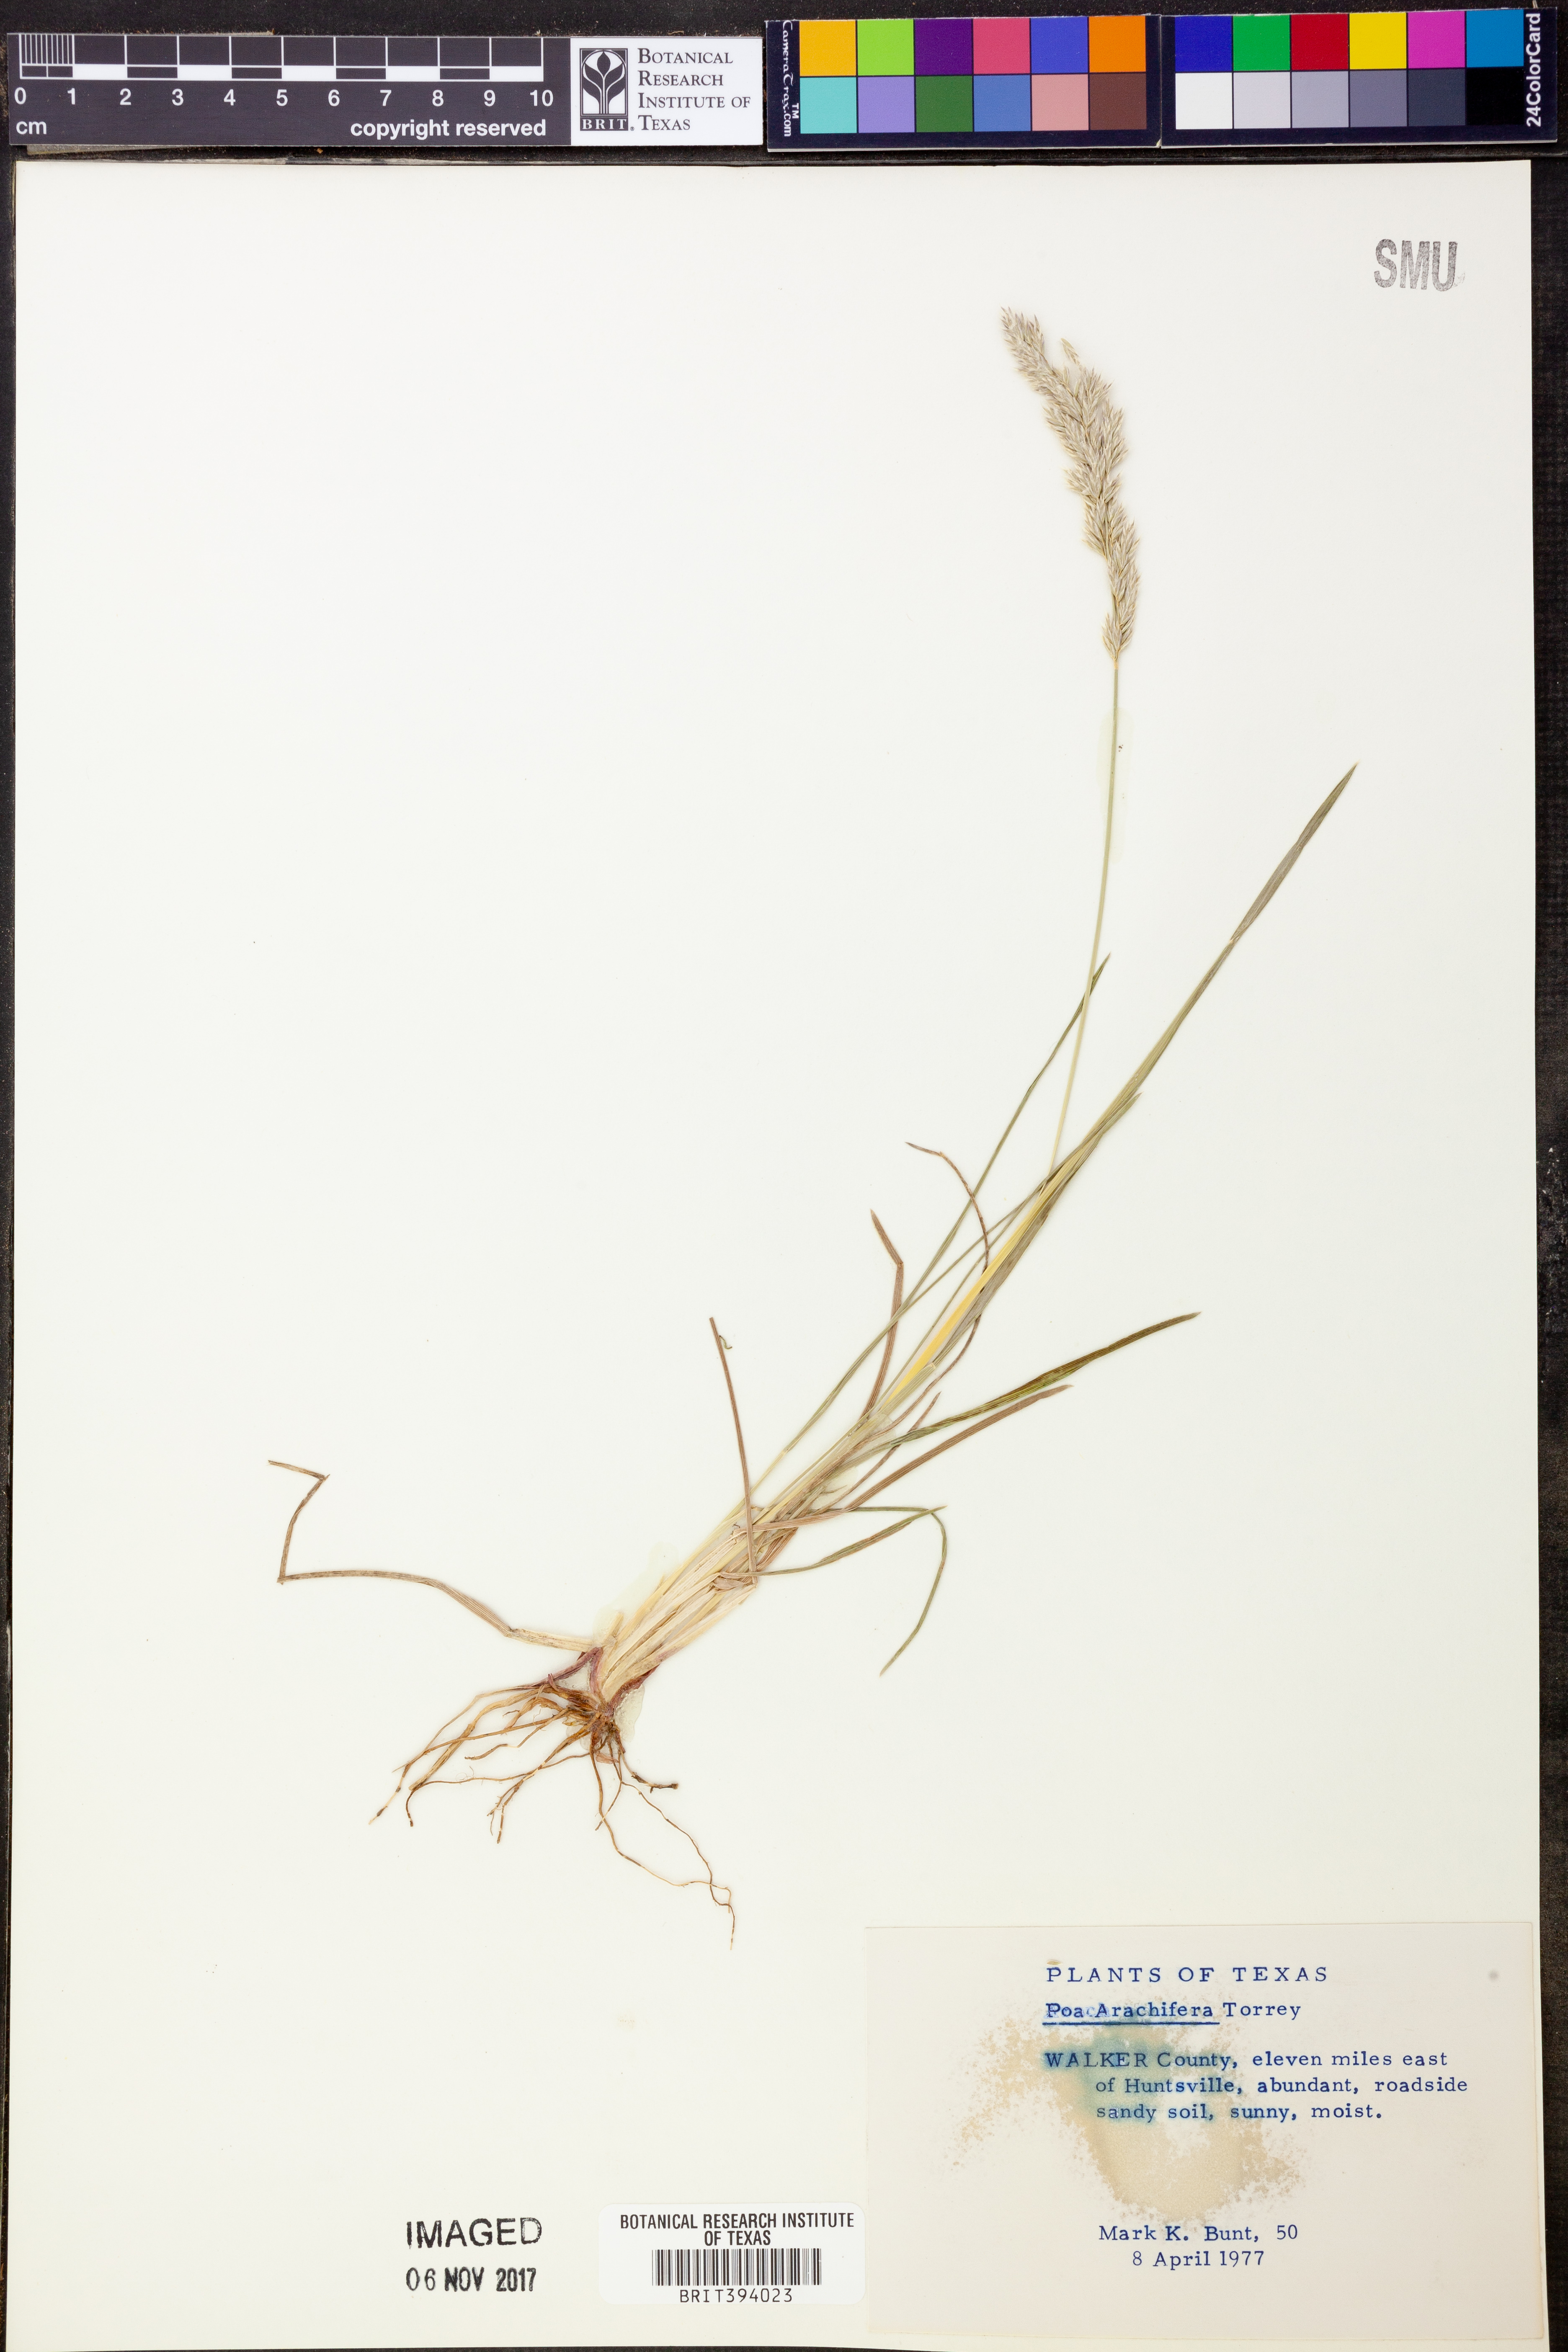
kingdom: Plantae
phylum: Tracheophyta
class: Liliopsida
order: Poales
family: Poaceae
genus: Poa
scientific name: Poa arachnifera
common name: Texas bluegrass
